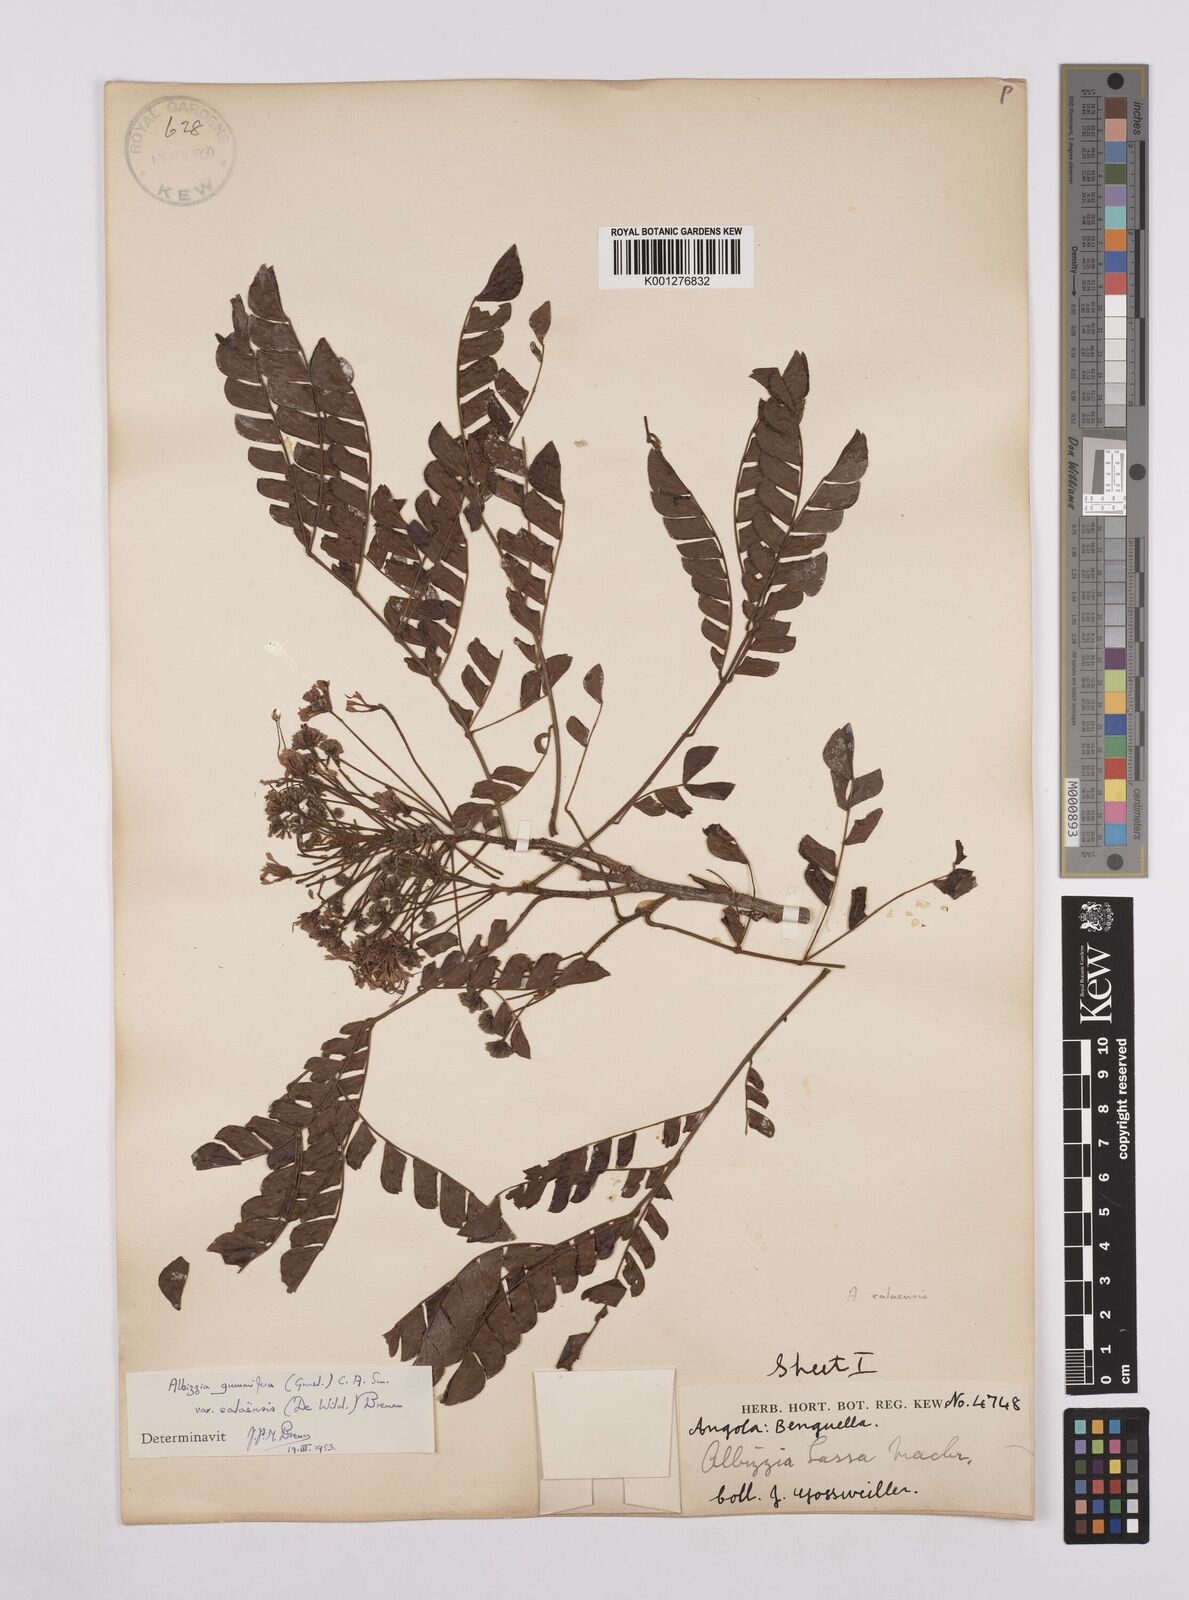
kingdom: Plantae
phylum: Tracheophyta
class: Magnoliopsida
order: Fabales
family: Fabaceae
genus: Albizia
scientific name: Albizia gummifera
